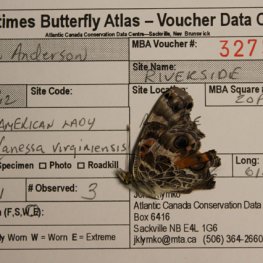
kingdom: Animalia
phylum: Arthropoda
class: Insecta
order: Lepidoptera
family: Nymphalidae
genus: Vanessa
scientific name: Vanessa virginiensis
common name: American Lady
